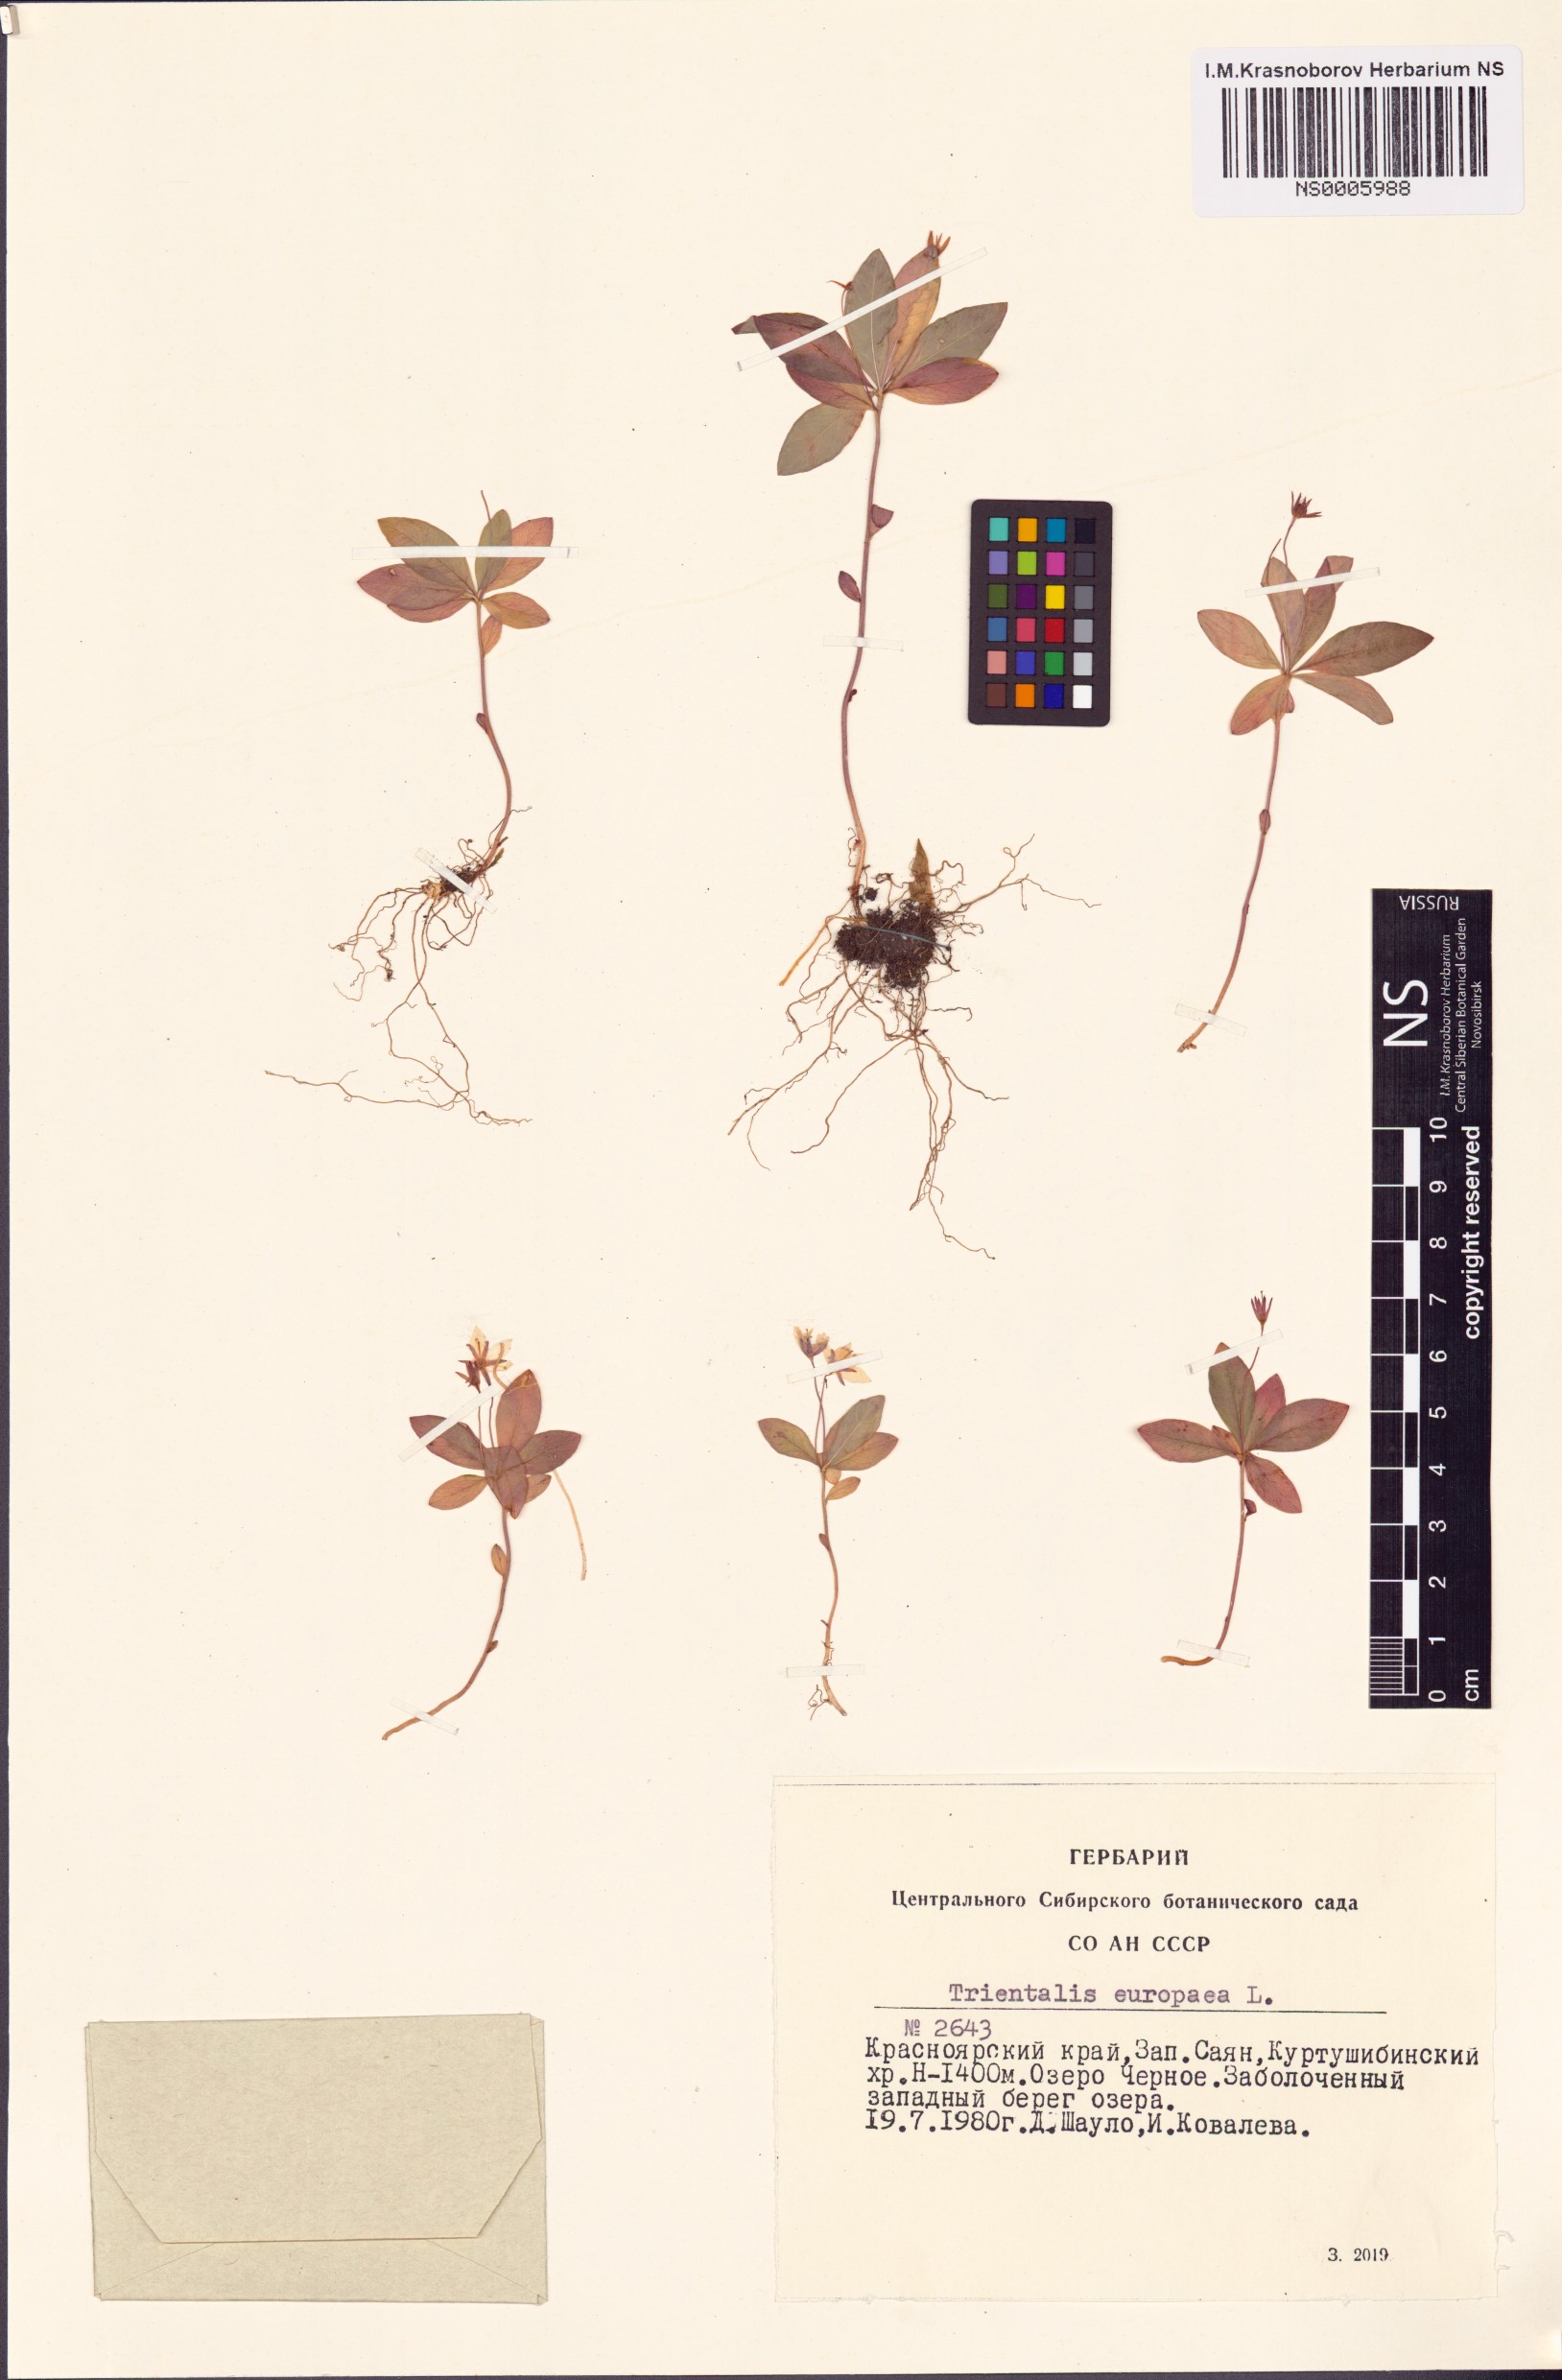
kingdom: Plantae
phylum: Tracheophyta
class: Magnoliopsida
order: Ericales
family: Primulaceae
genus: Lysimachia
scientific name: Lysimachia europaea
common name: Arctic starflower
